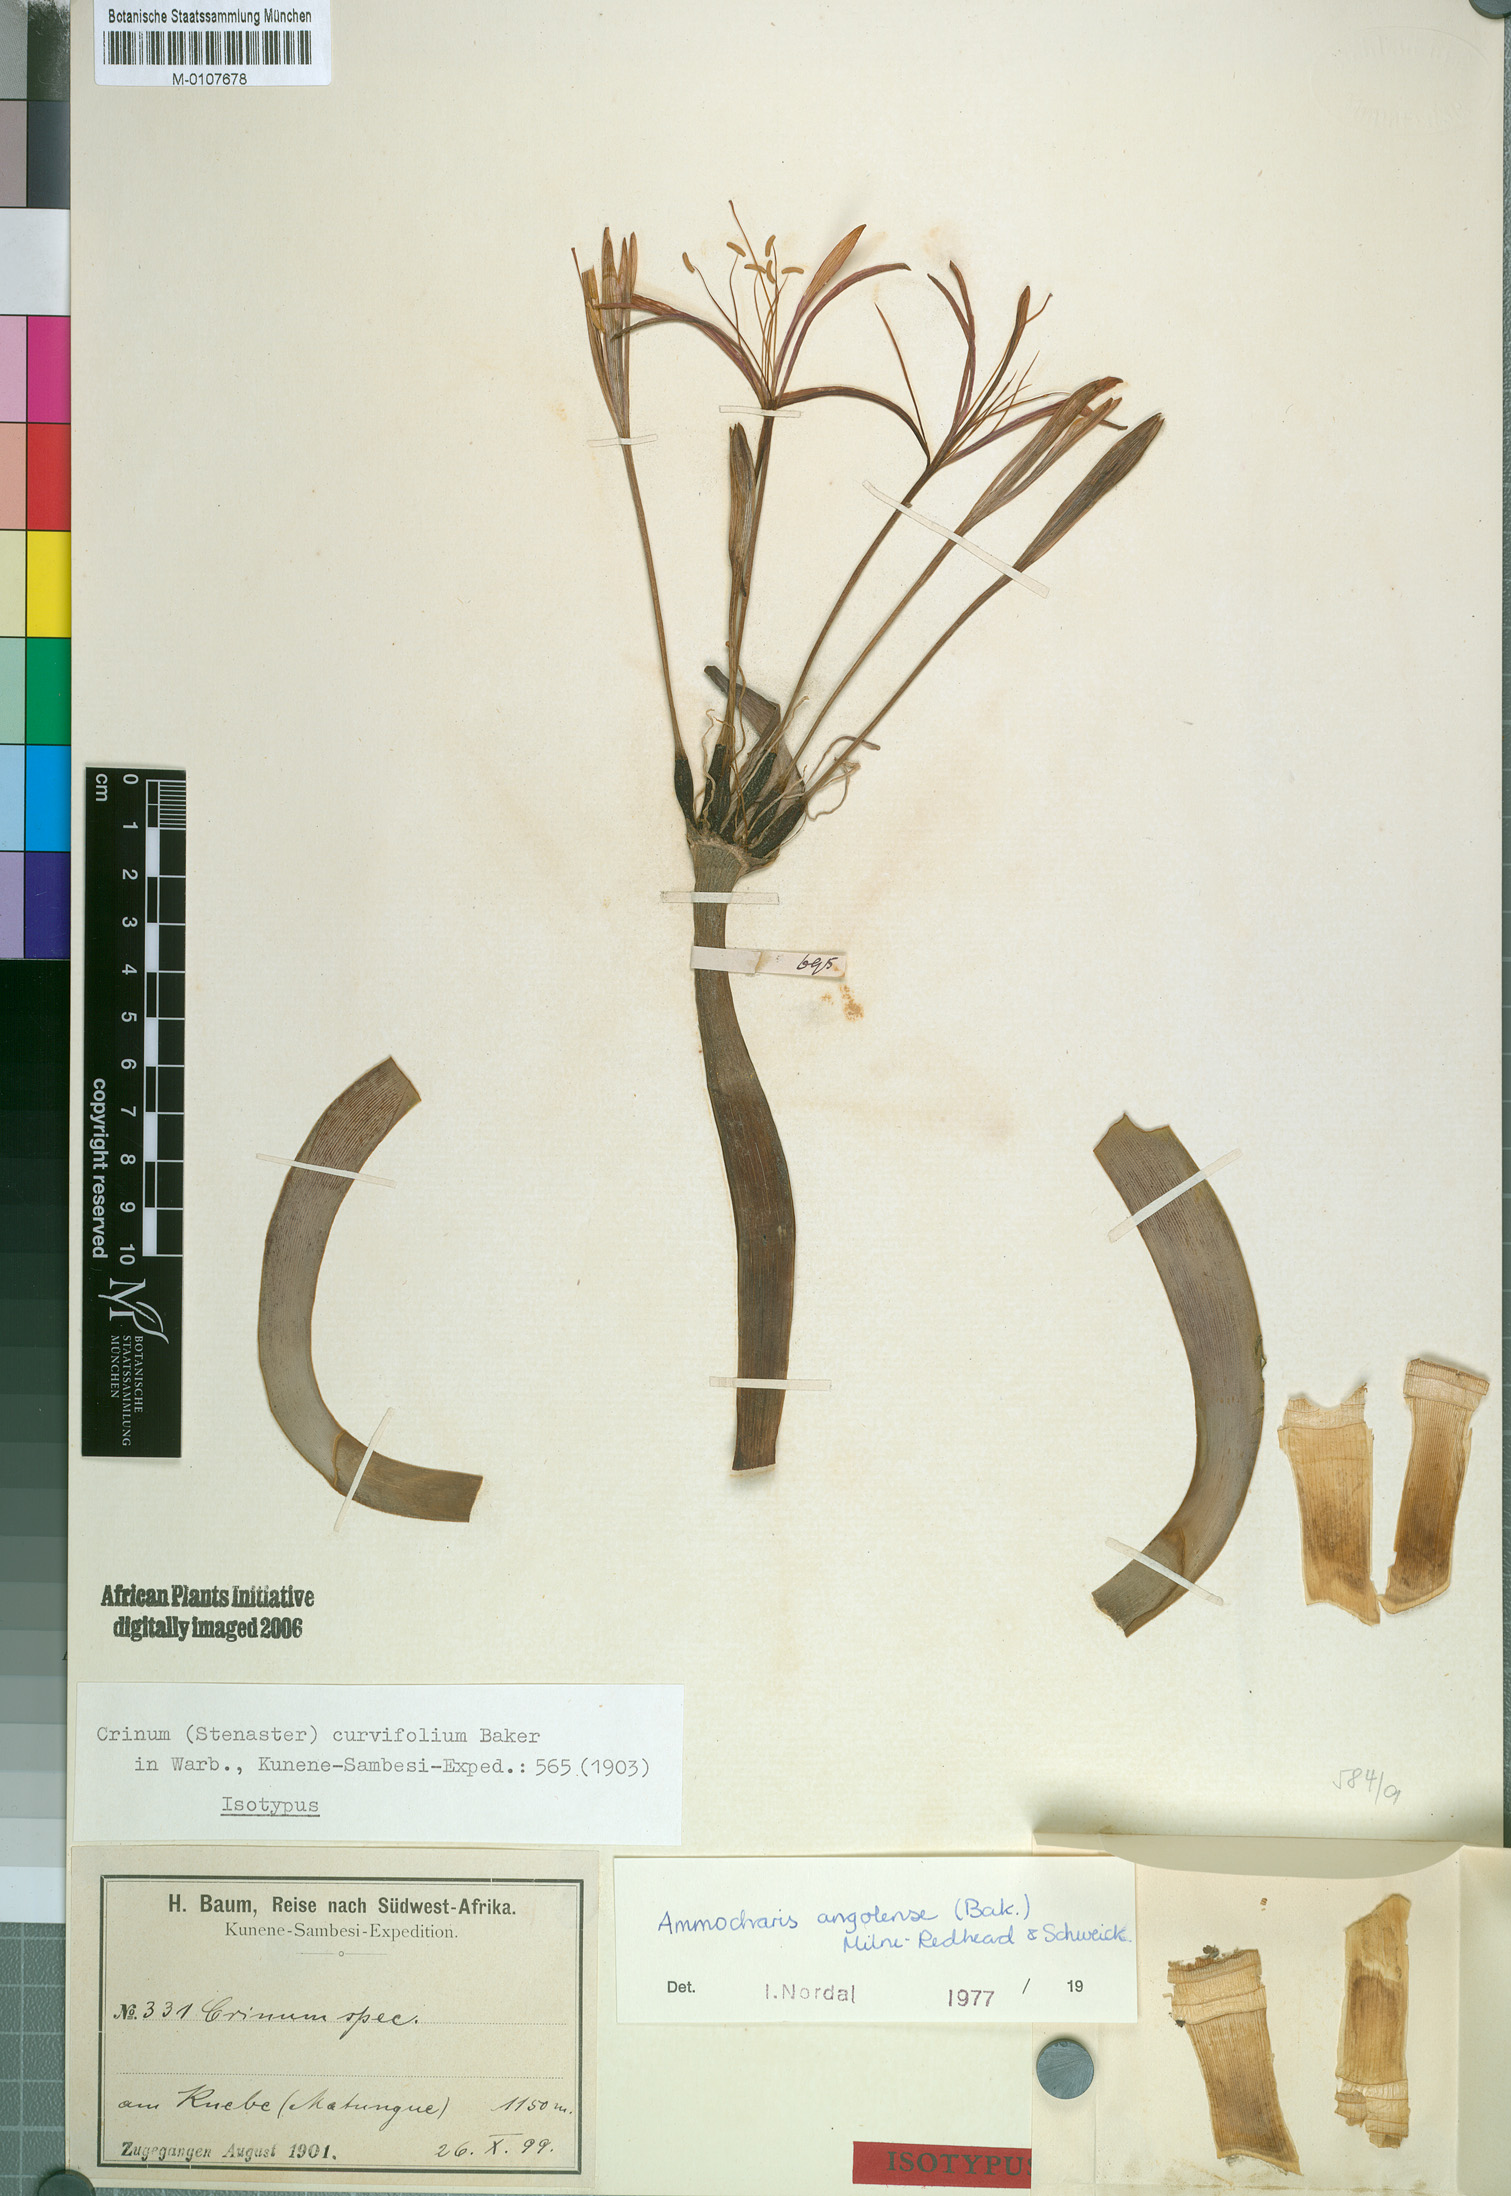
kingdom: Plantae
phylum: Tracheophyta
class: Liliopsida
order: Asparagales
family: Amaryllidaceae
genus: Ammocharis
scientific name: Ammocharis angolensis
